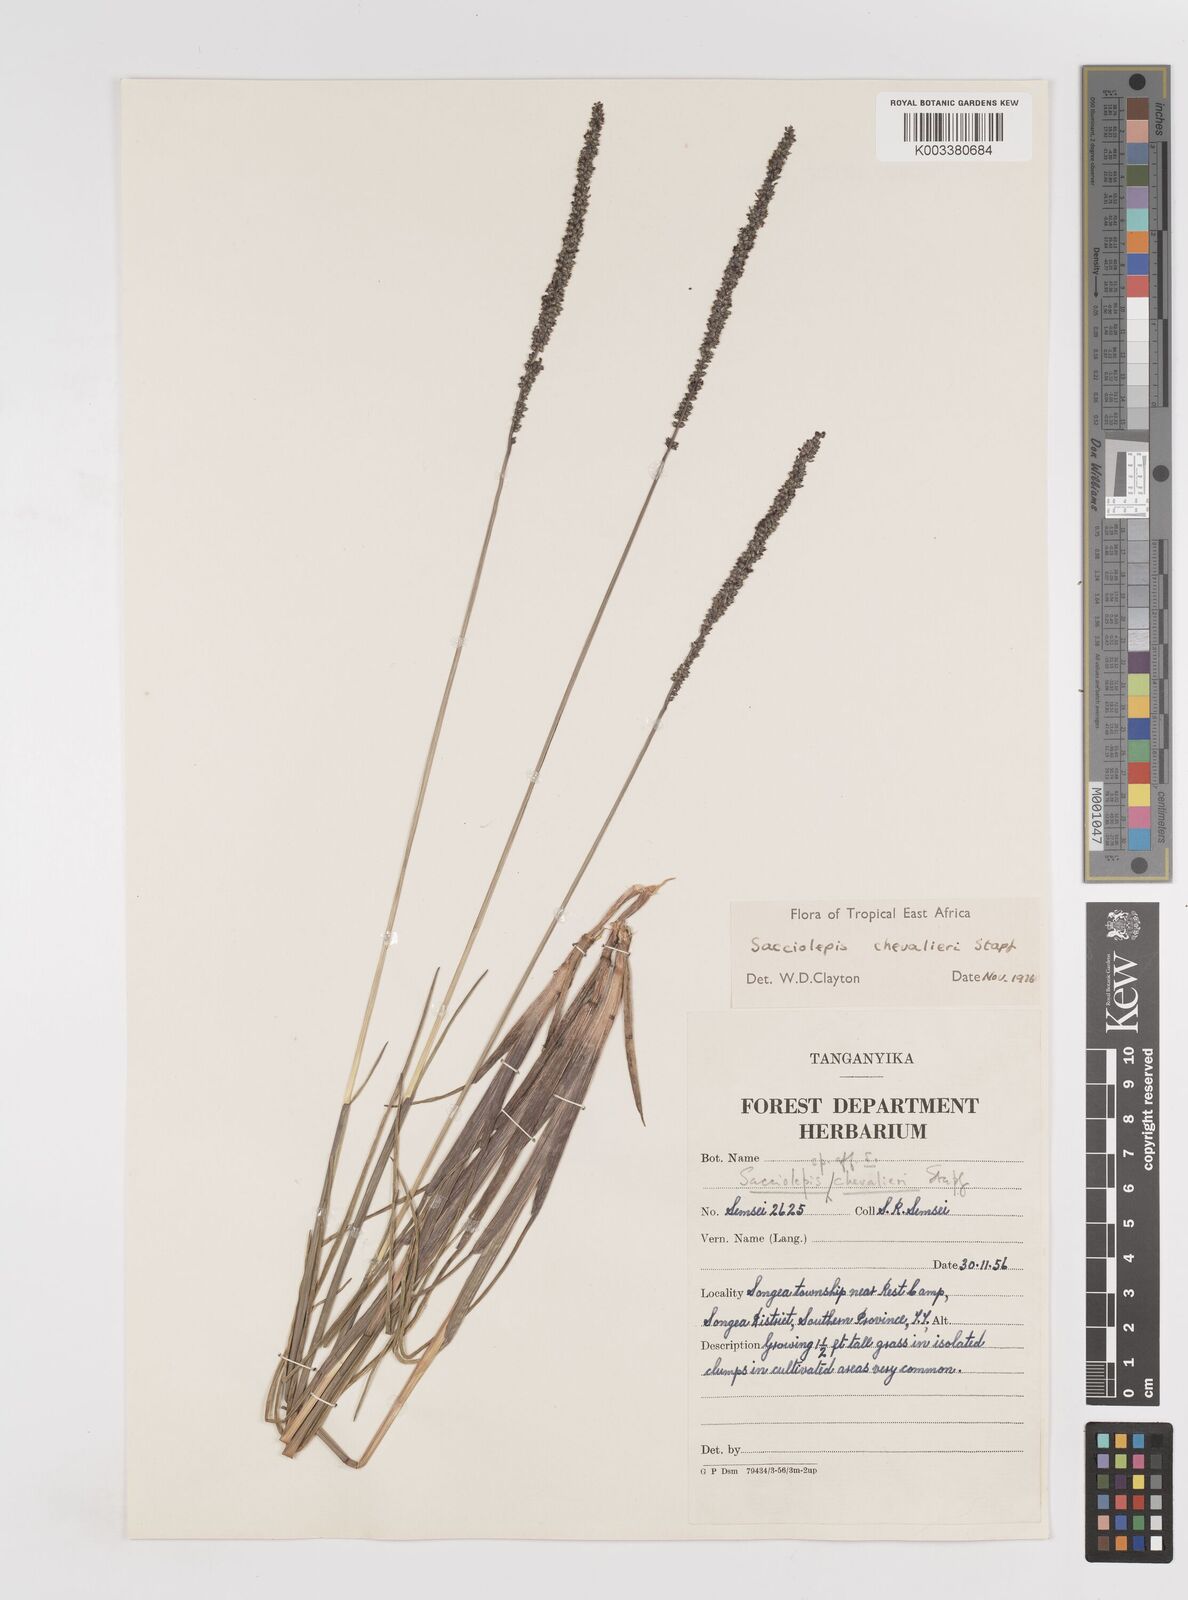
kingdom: Plantae
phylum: Tracheophyta
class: Liliopsida
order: Poales
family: Poaceae
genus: Sacciolepis
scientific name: Sacciolepis chevalieri
